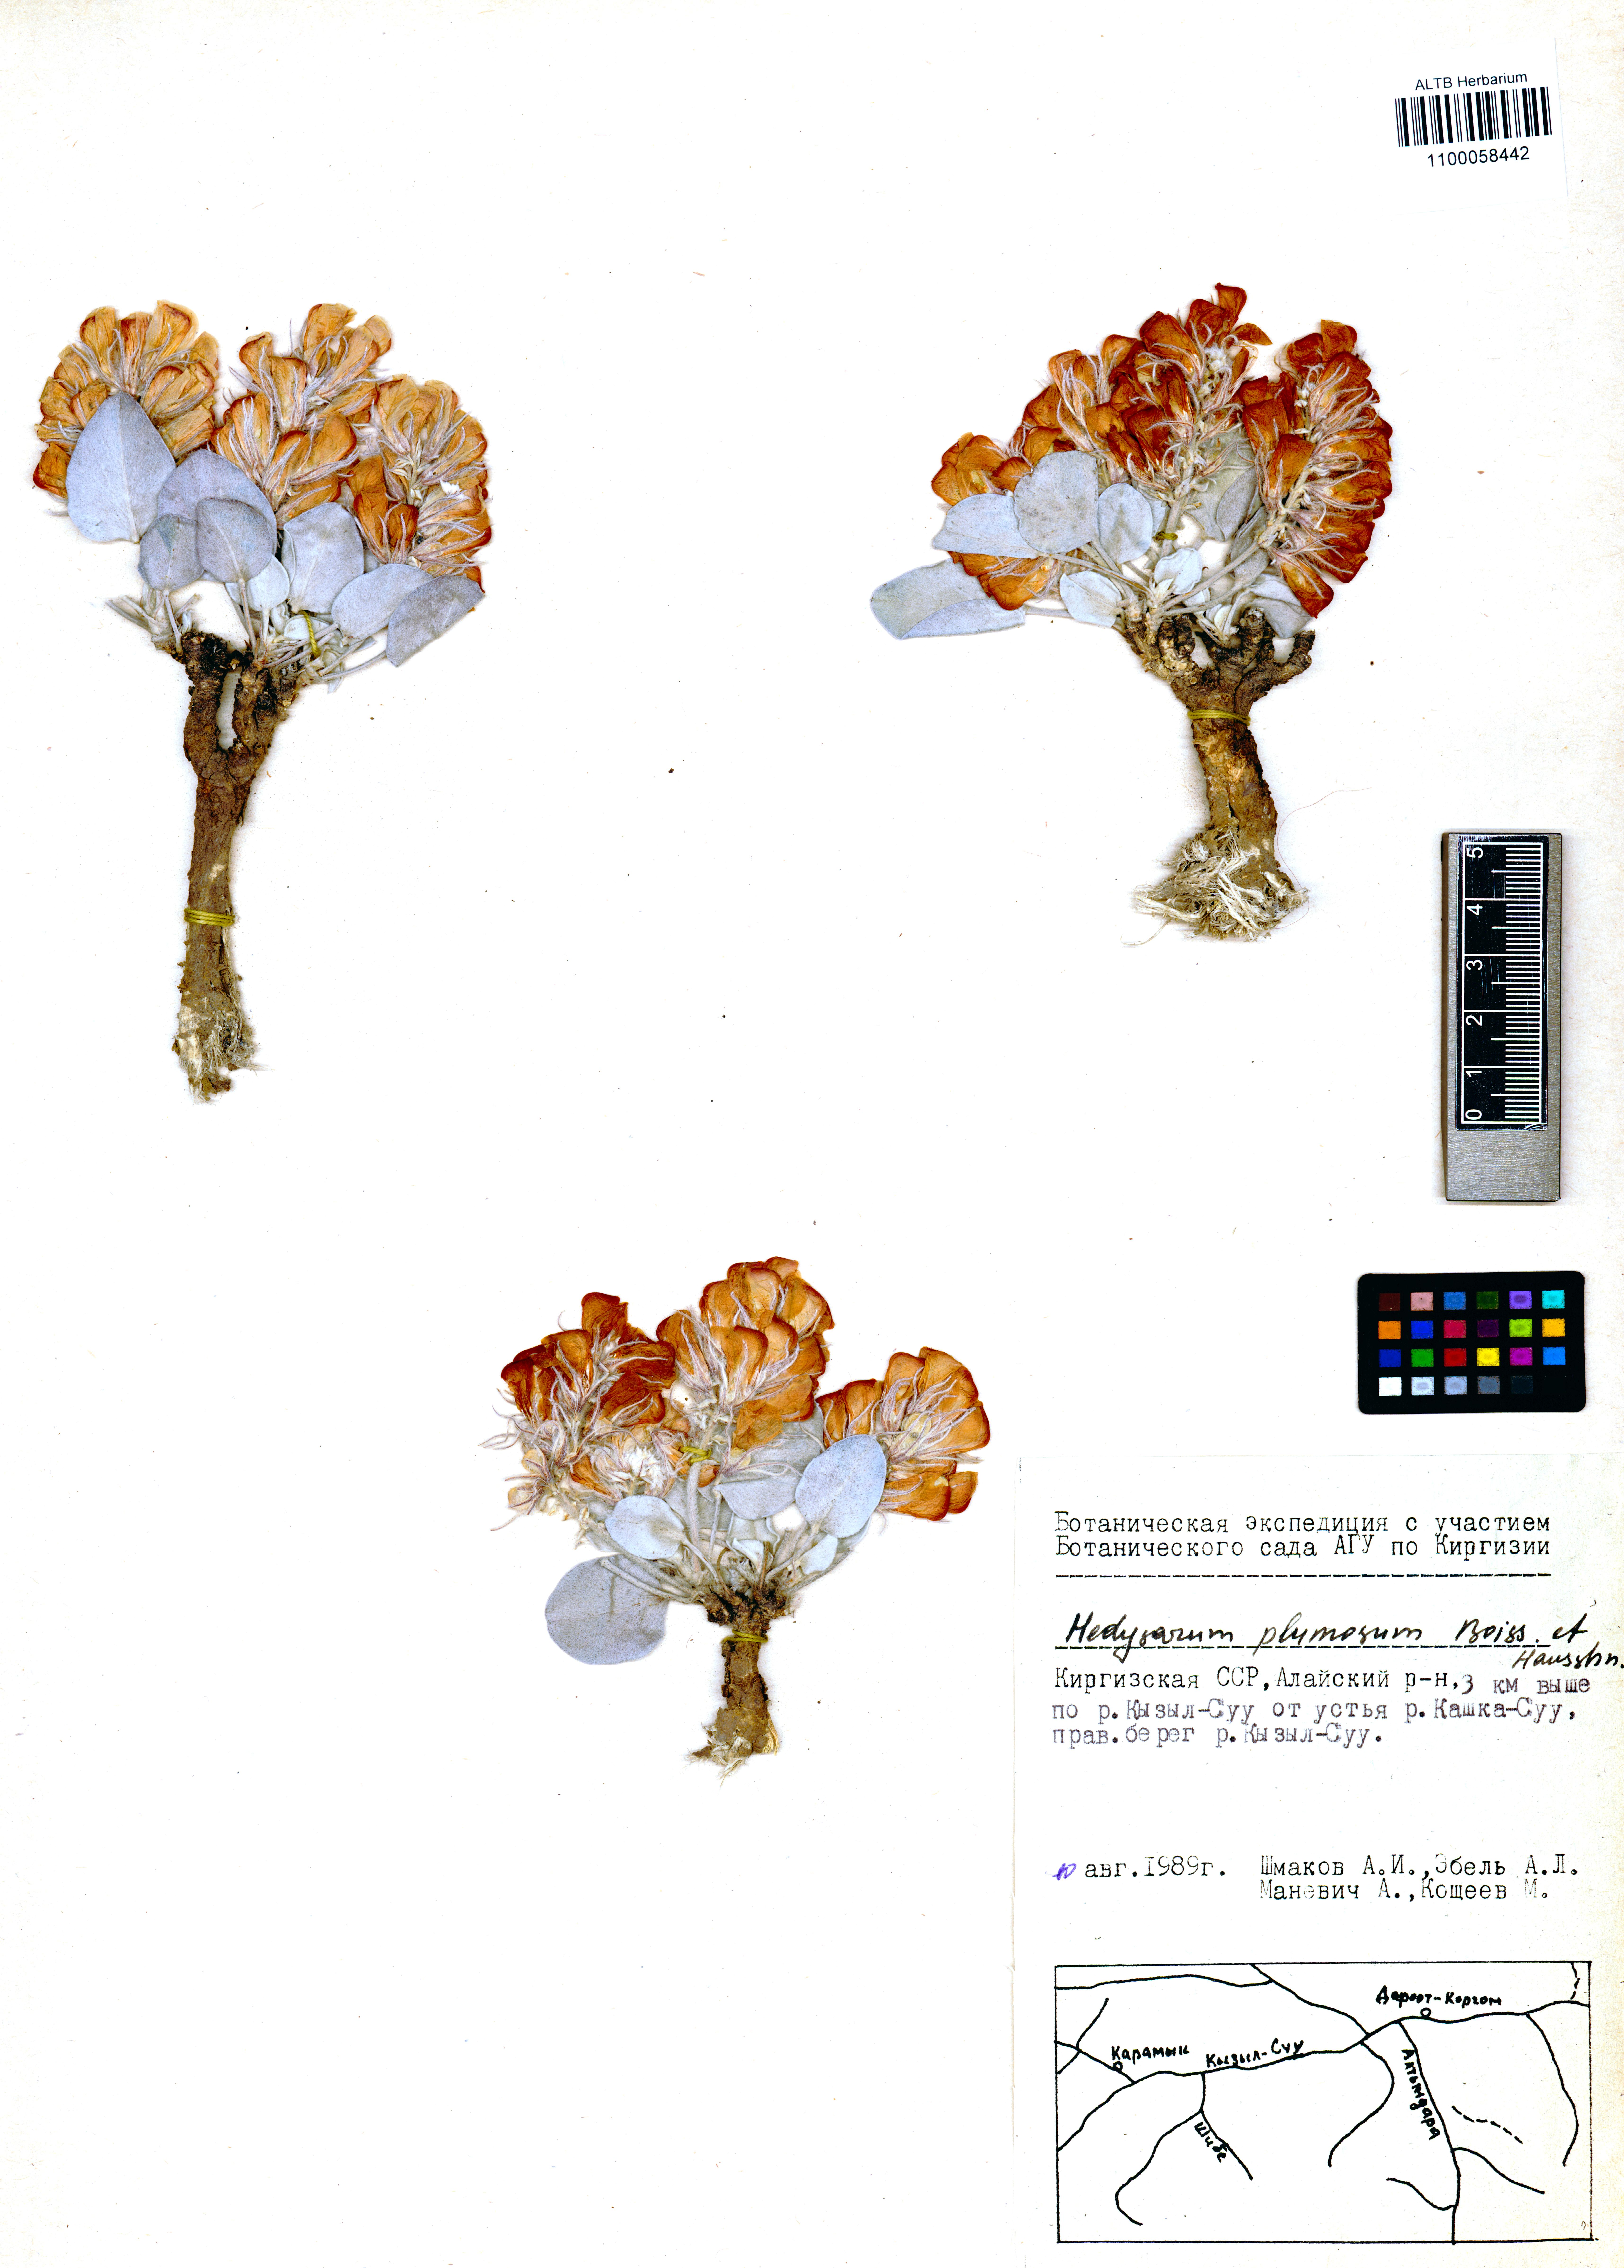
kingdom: Plantae
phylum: Tracheophyta
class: Magnoliopsida
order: Fabales
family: Fabaceae
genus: Hedysarum
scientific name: Hedysarum plumosum
